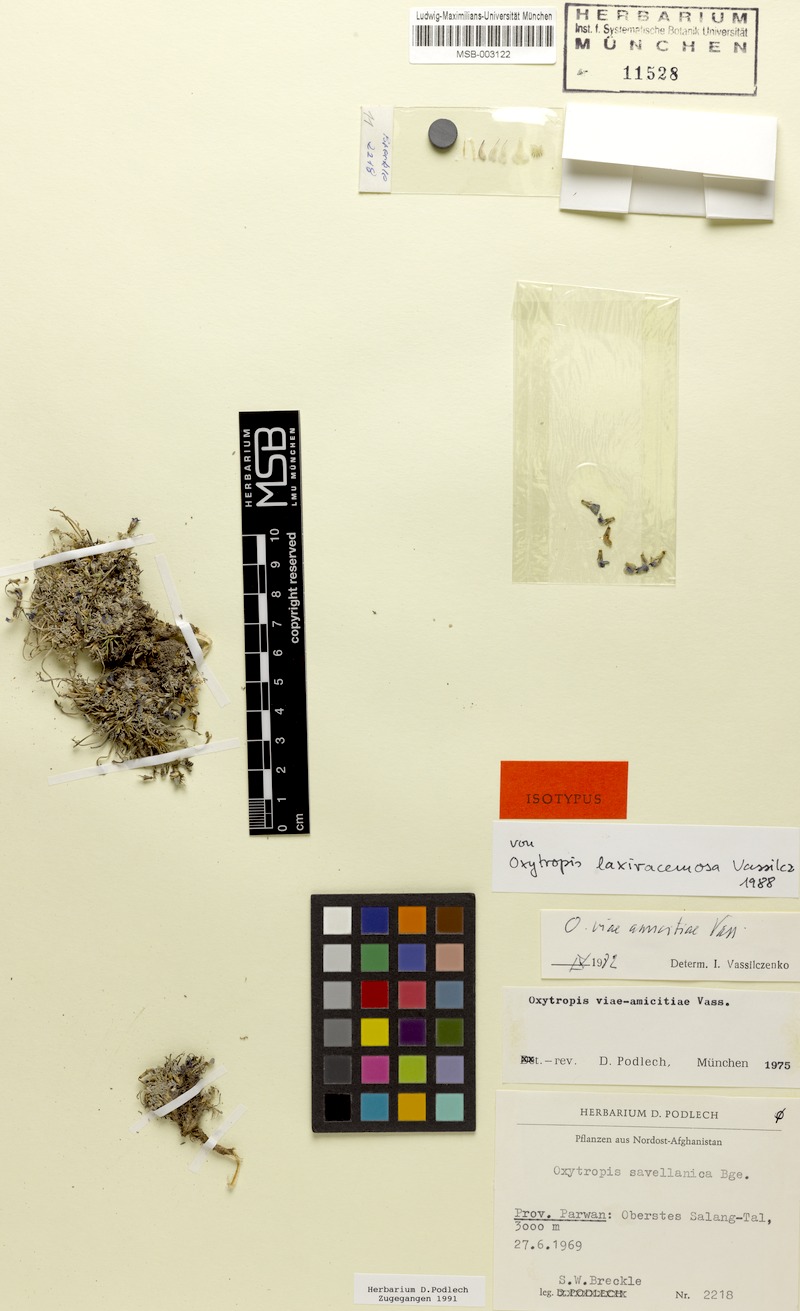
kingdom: Plantae
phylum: Tracheophyta
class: Magnoliopsida
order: Fabales
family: Fabaceae
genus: Oxytropis
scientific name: Oxytropis humifusa
